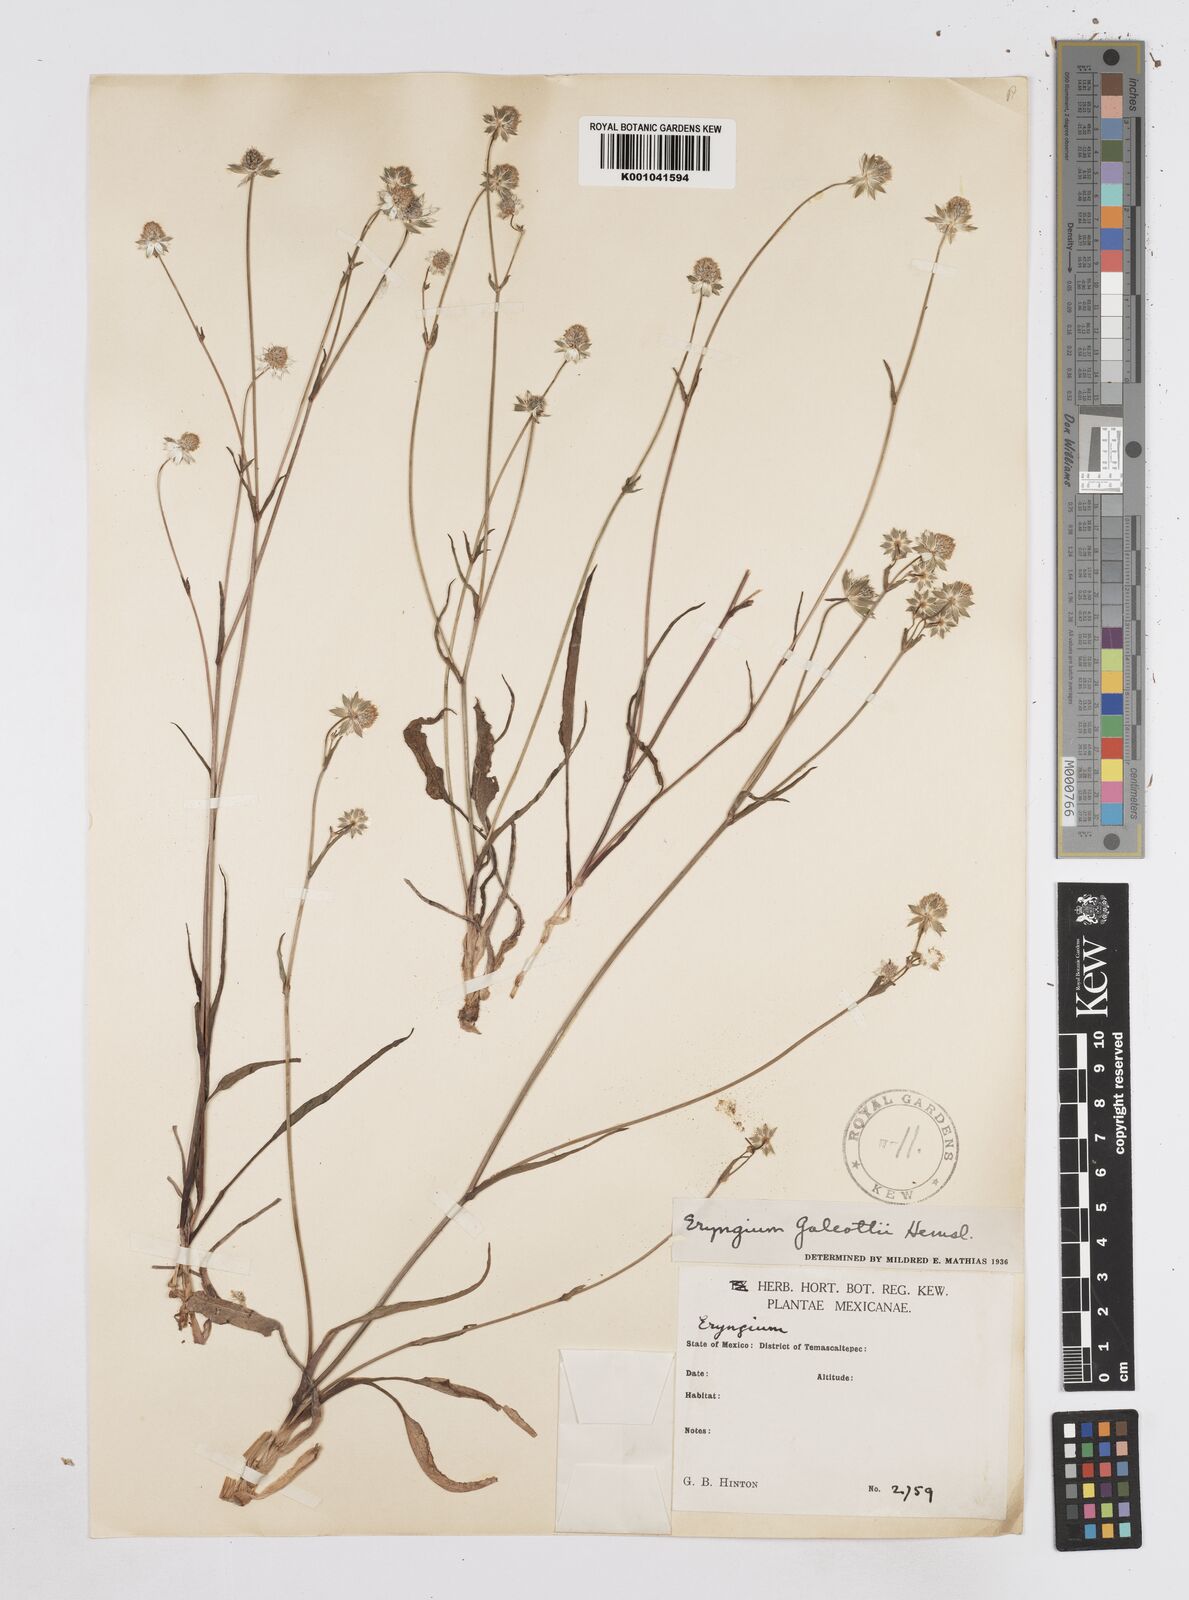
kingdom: Plantae
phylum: Tracheophyta
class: Magnoliopsida
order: Apiales
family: Apiaceae
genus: Eryngium
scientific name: Eryngium galeottii
